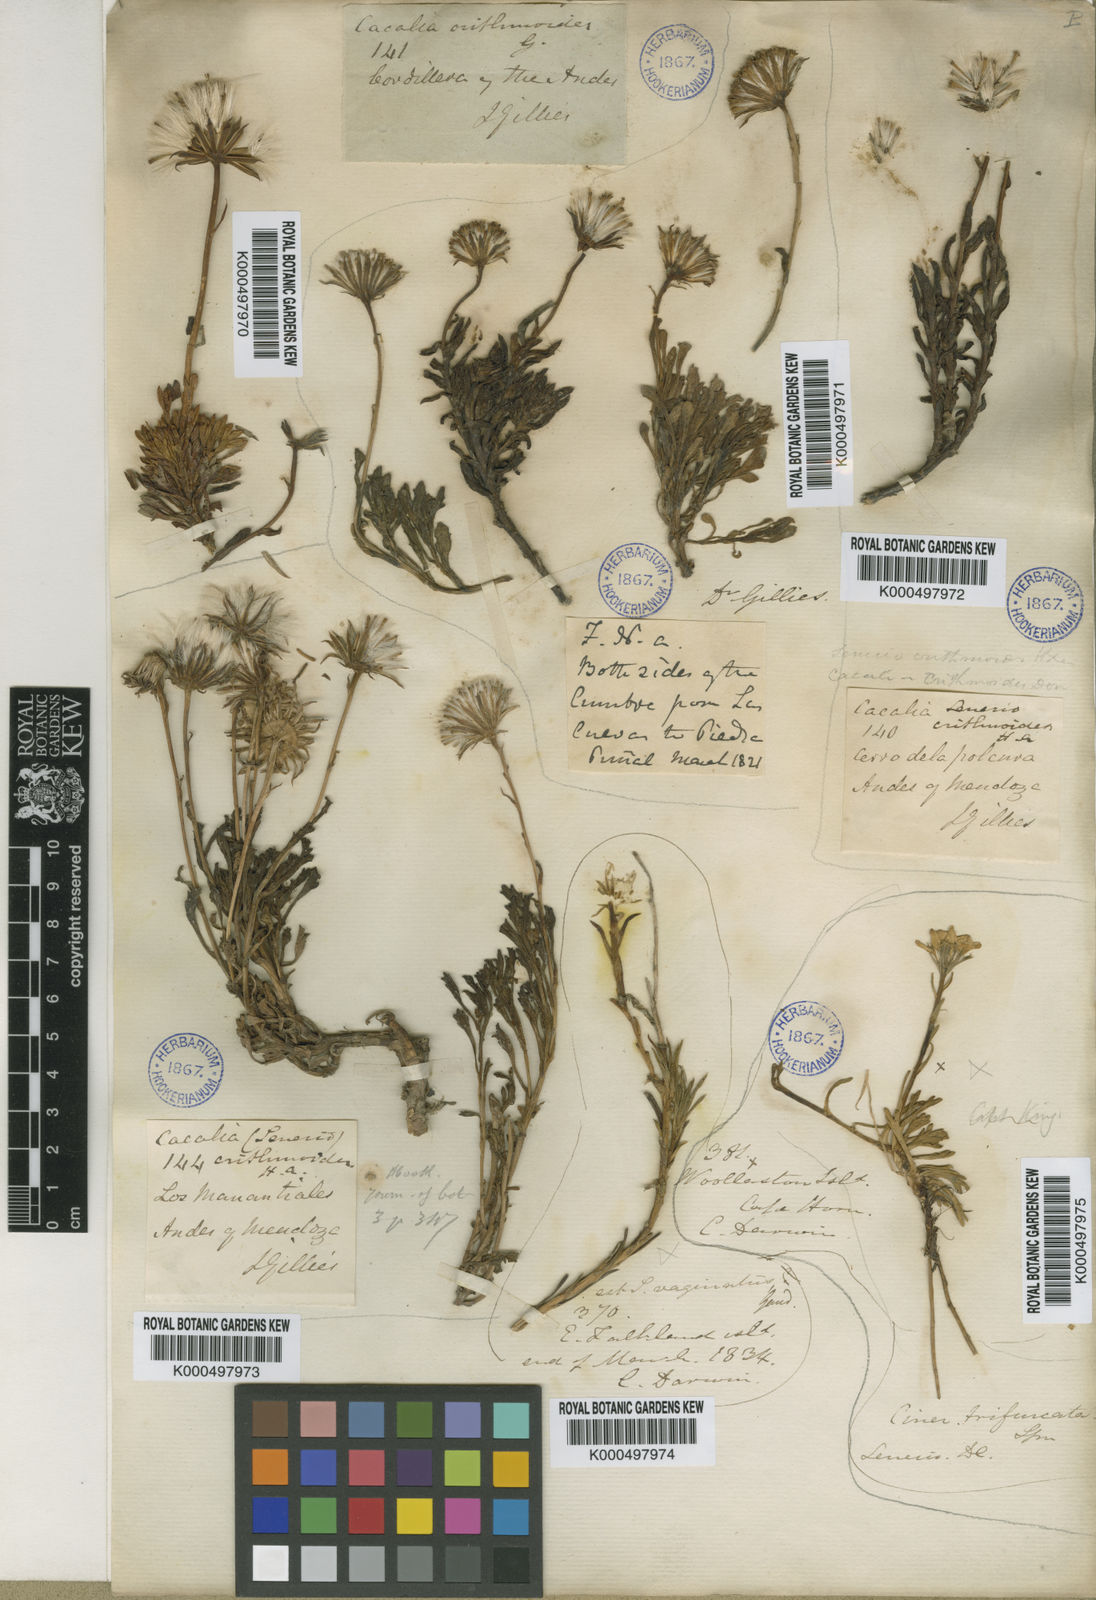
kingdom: Plantae
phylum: Tracheophyta
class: Magnoliopsida
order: Asterales
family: Asteraceae
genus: Senecio
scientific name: Senecio crithmoides
